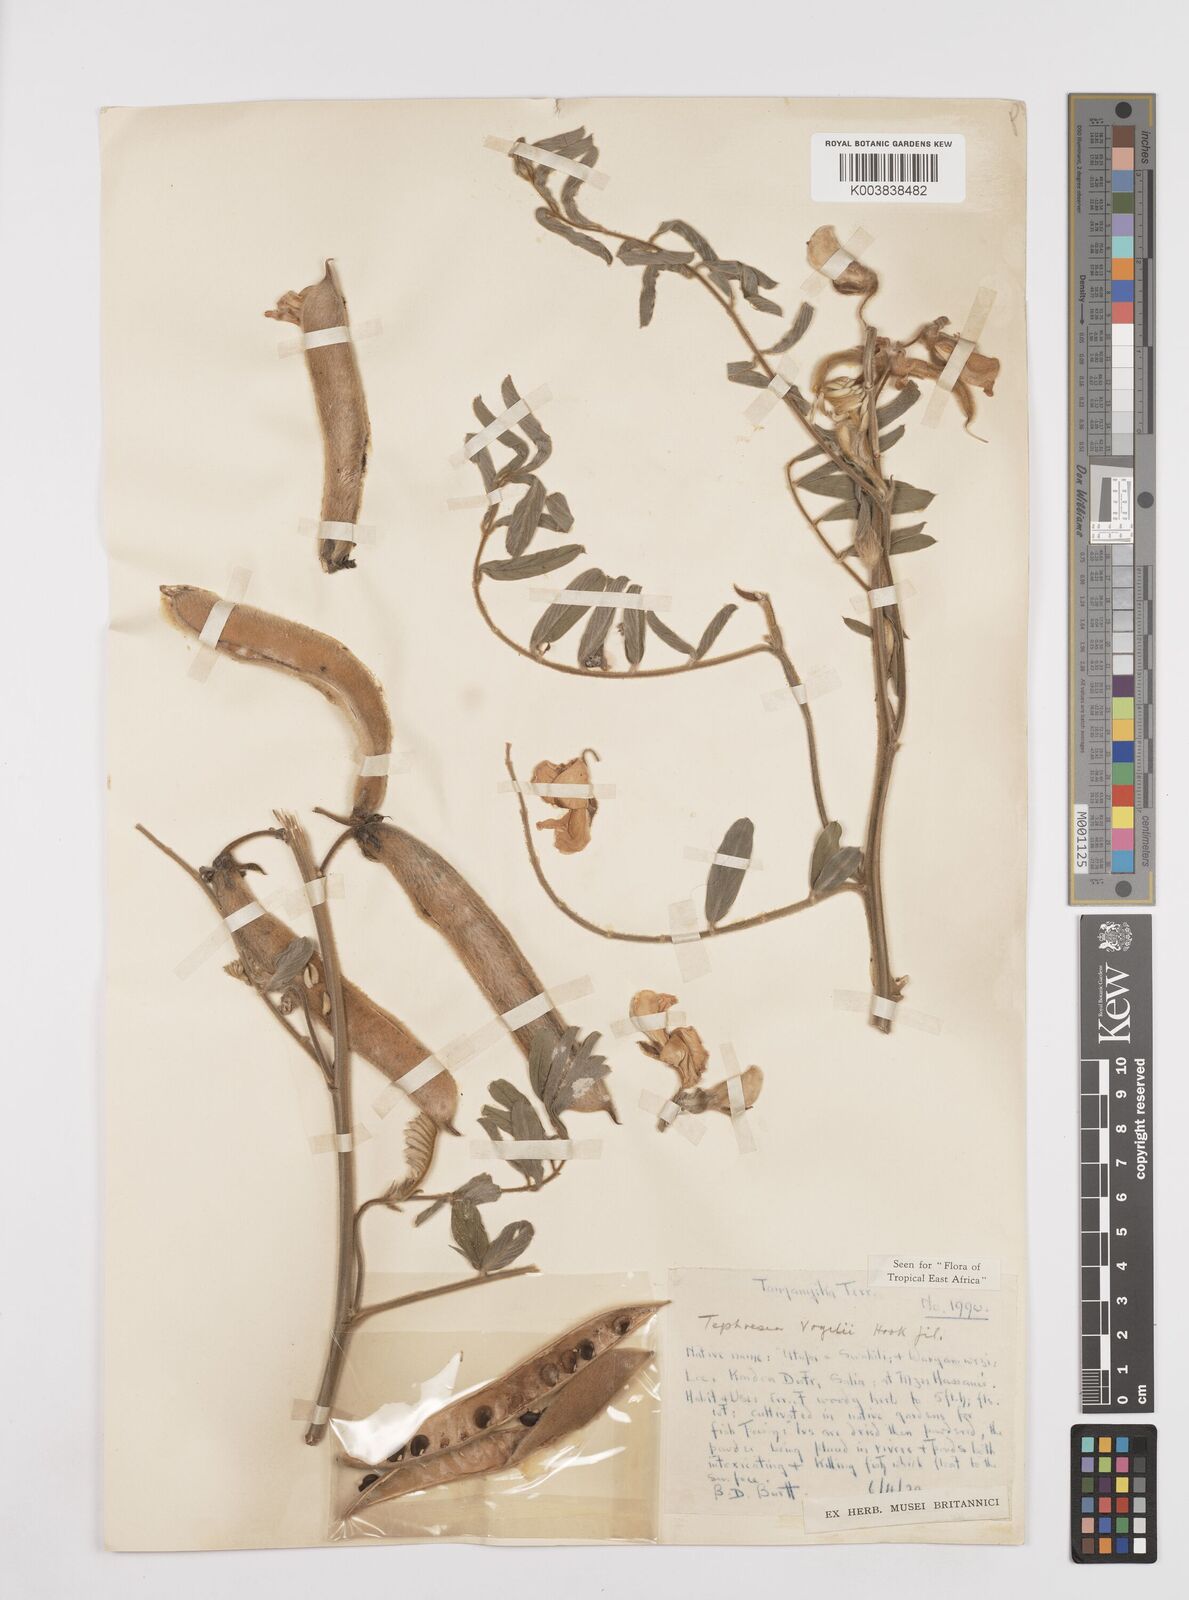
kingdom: Plantae
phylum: Tracheophyta
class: Magnoliopsida
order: Fabales
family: Fabaceae
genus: Tephrosia
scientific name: Tephrosia vogelii
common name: Vogel tephrosia
